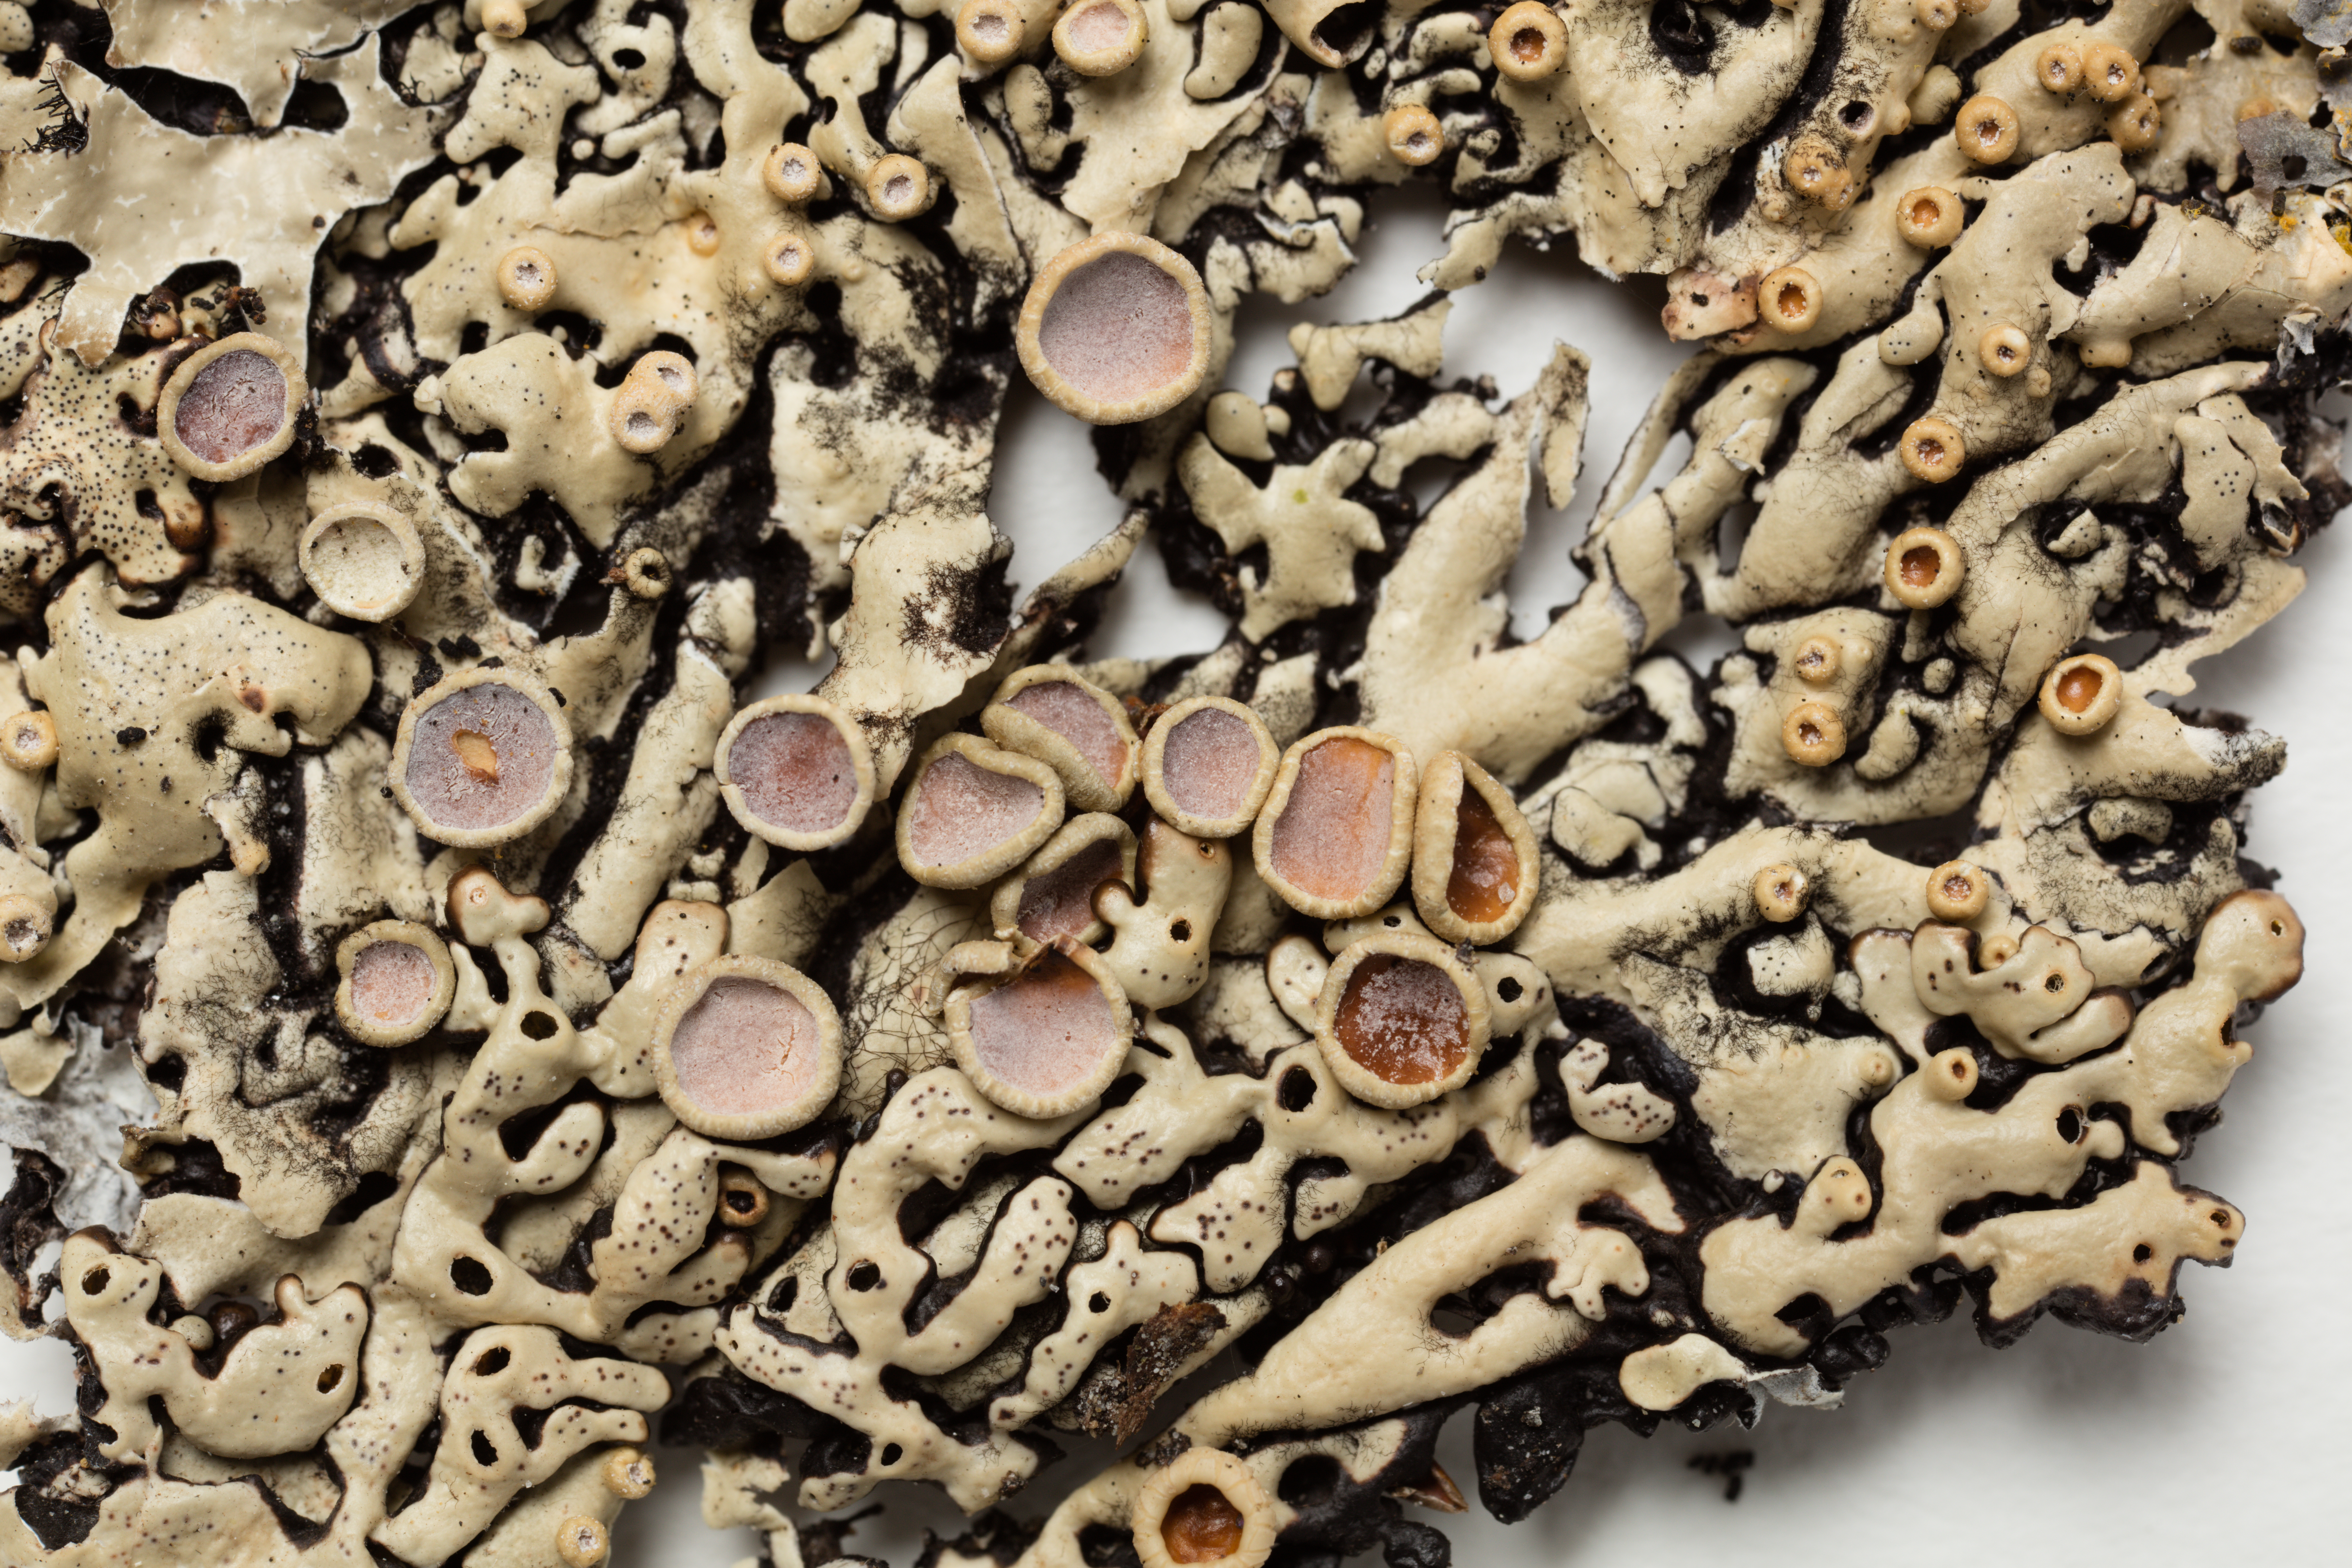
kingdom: Fungi
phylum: Ascomycota
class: Lecanoromycetes
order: Lecanorales
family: Parmeliaceae
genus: Menegazzia
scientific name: Menegazzia dielsii
